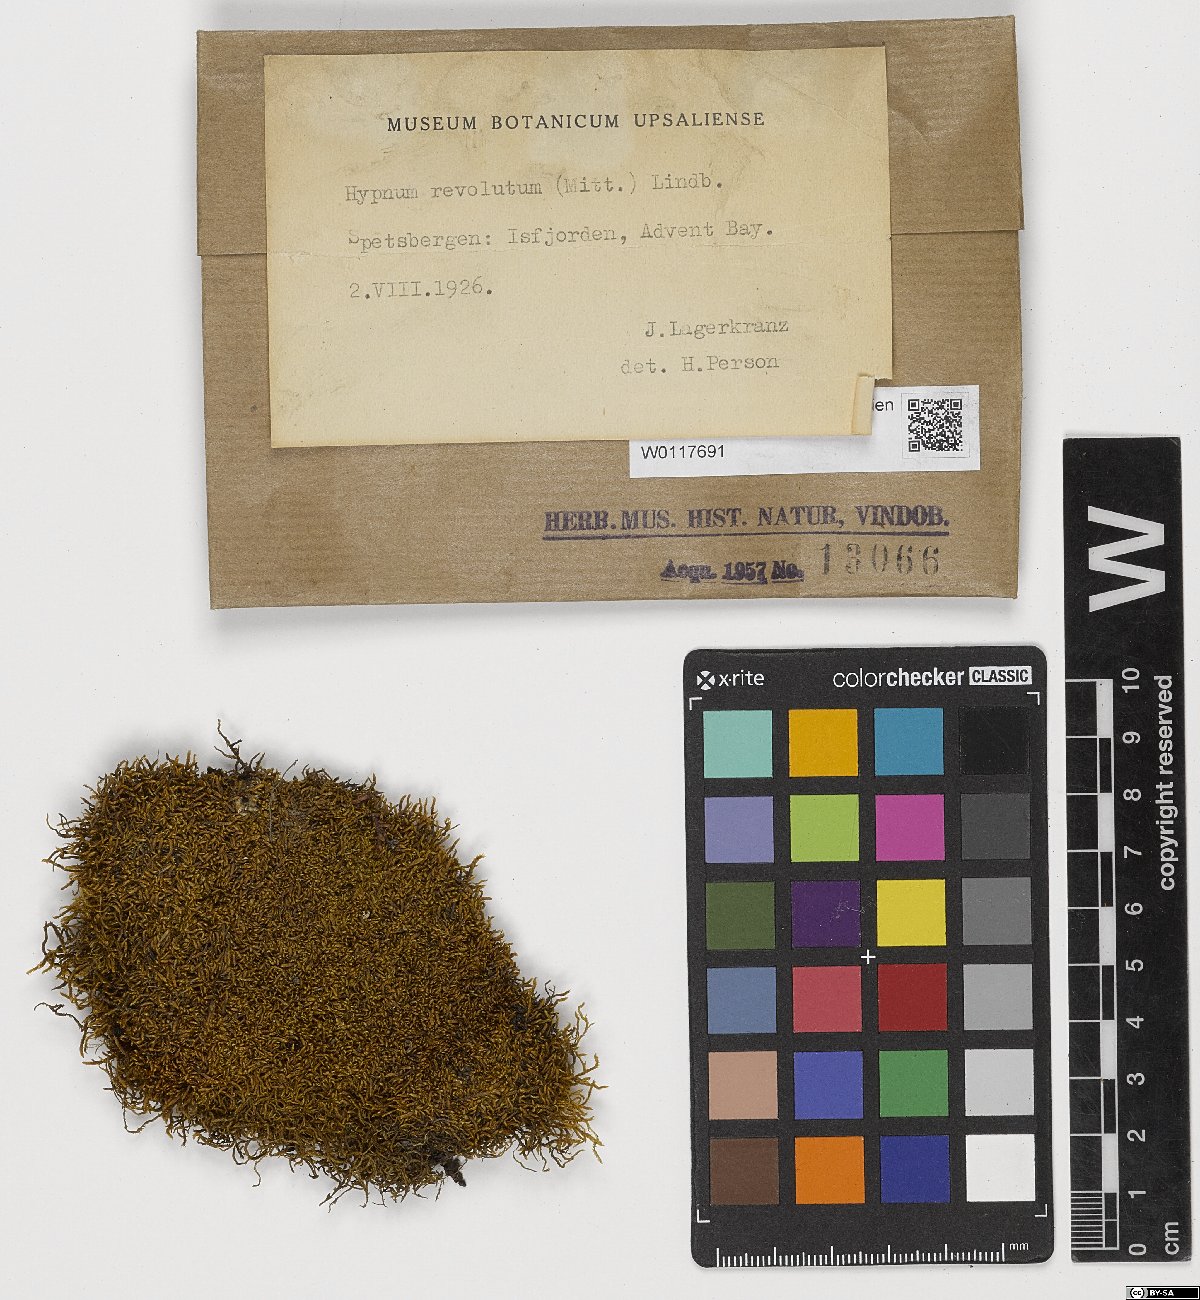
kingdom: Plantae
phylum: Bryophyta
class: Bryopsida
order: Hypnales
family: Pylaisiaceae
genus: Roaldia
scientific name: Roaldia revoluta
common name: Revolute plait-moss
